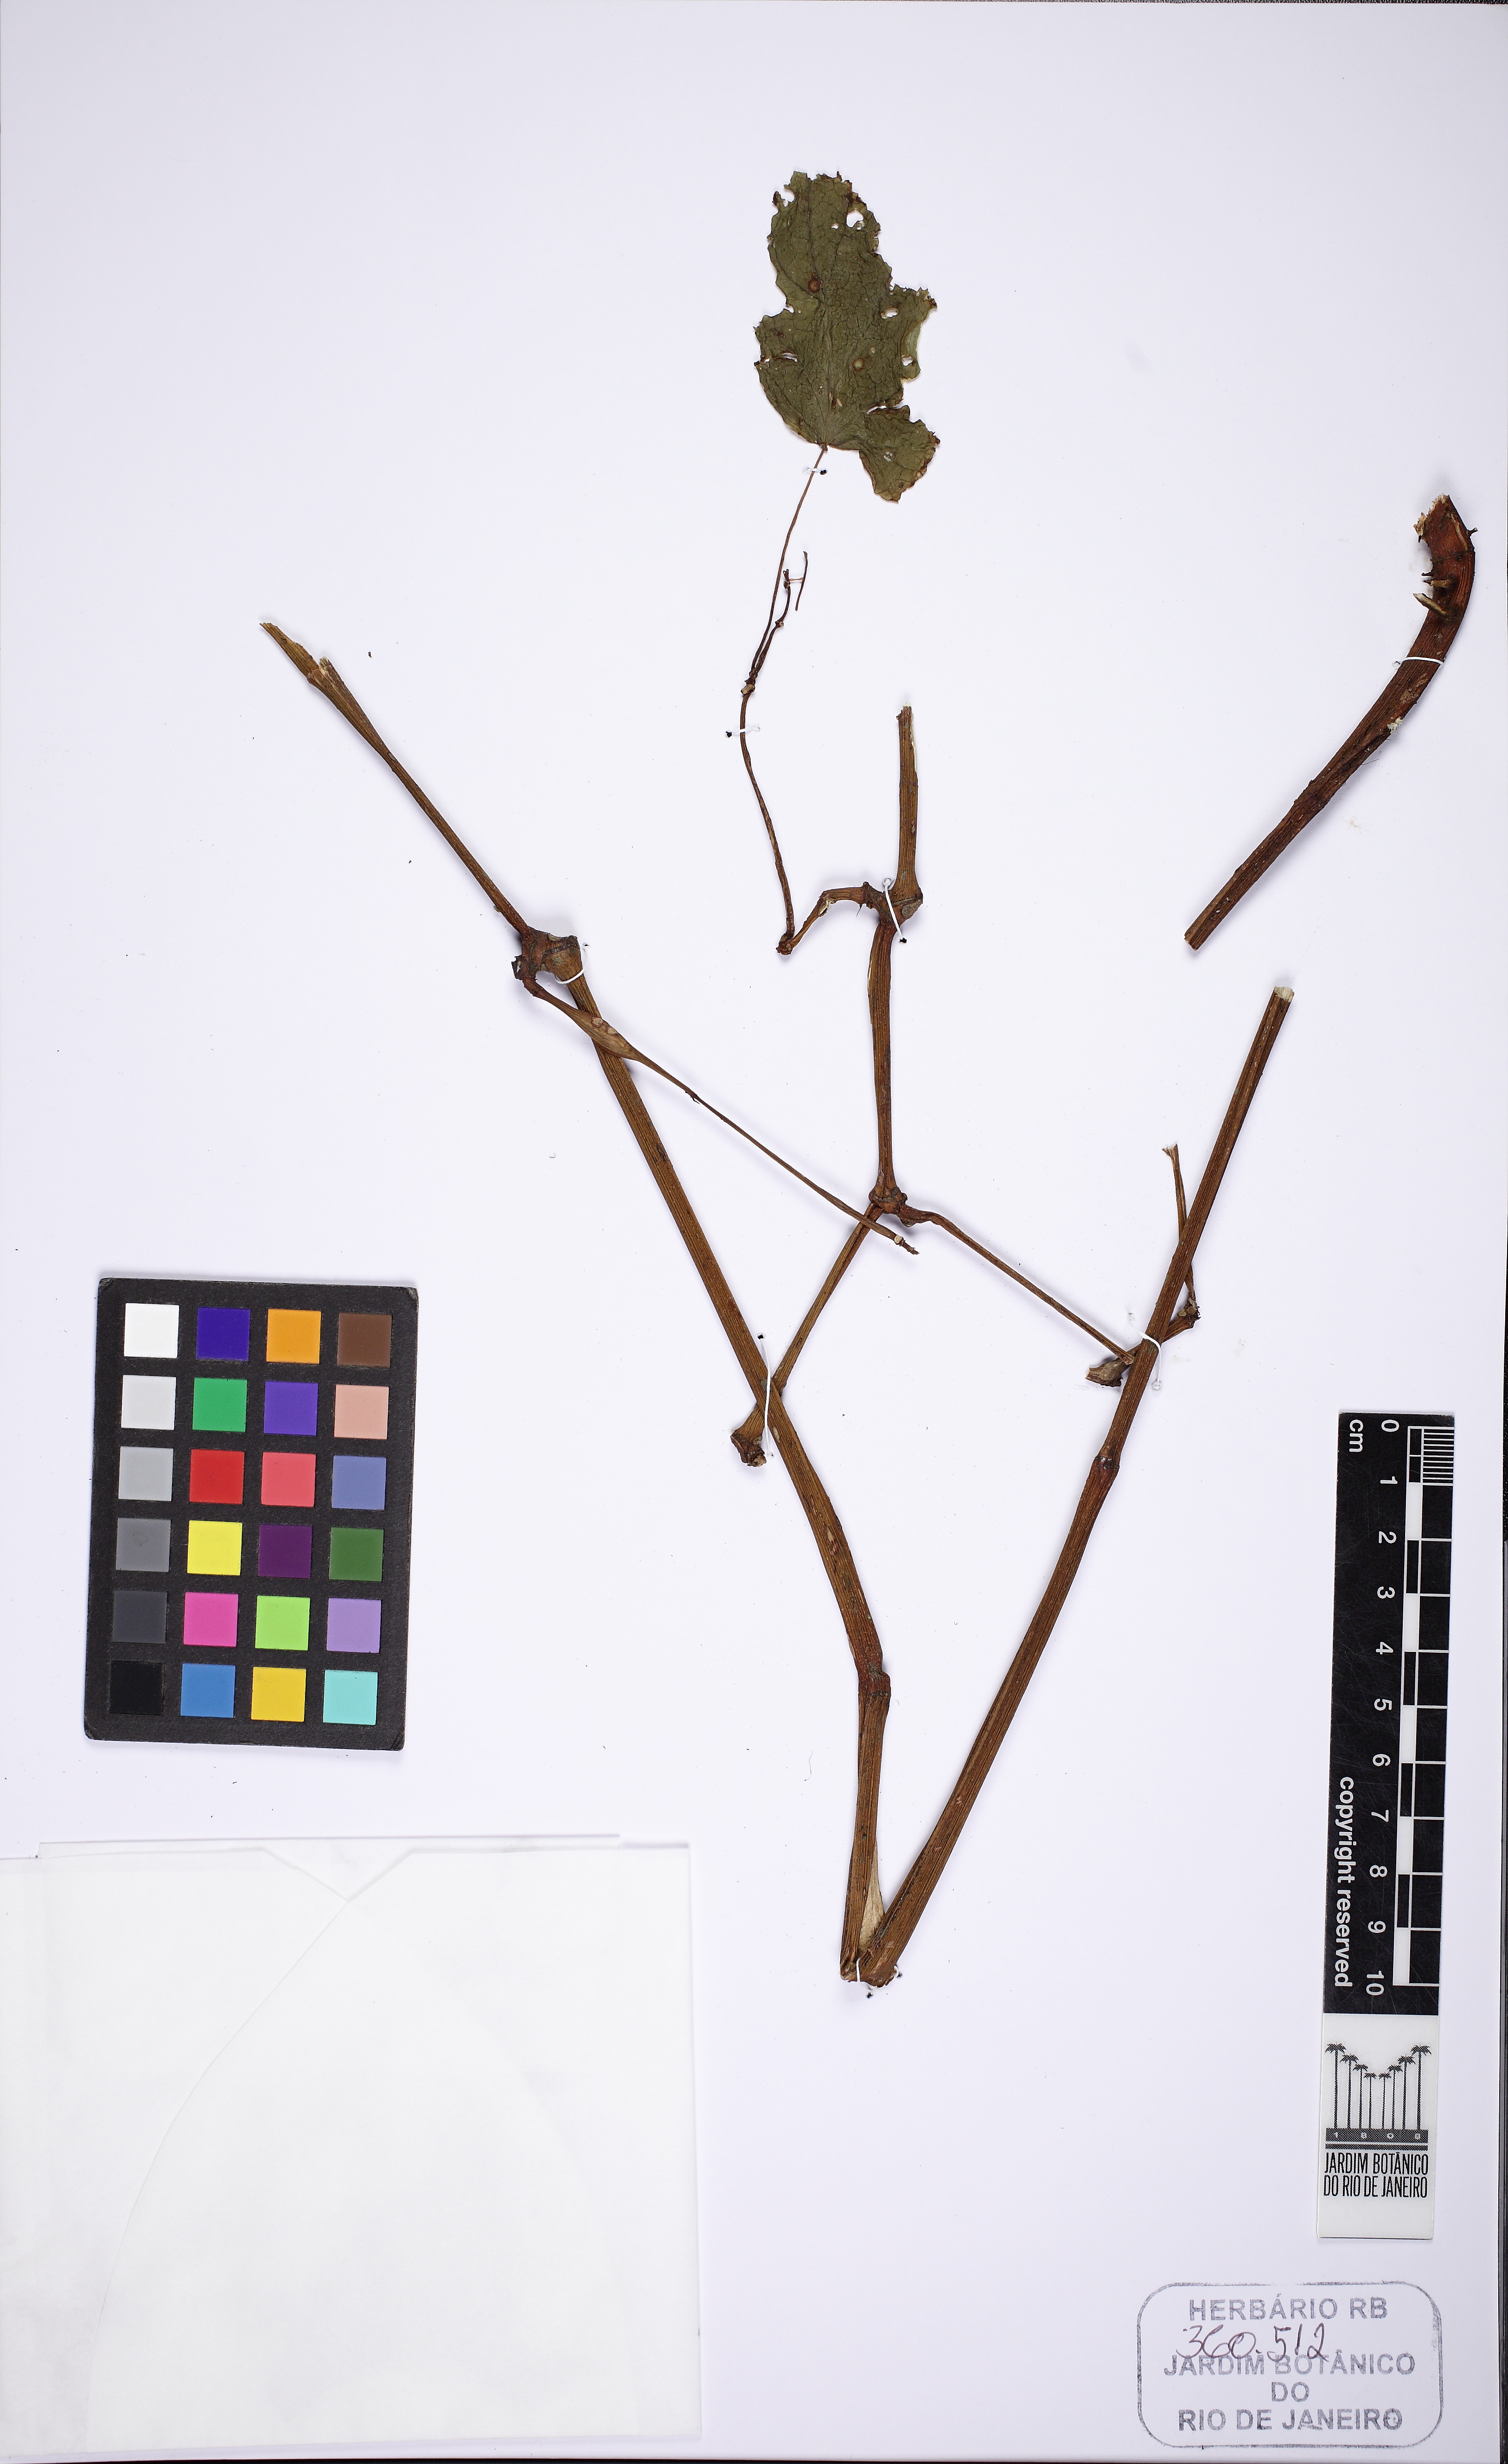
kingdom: Plantae
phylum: Tracheophyta
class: Magnoliopsida
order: Cucurbitales
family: Begoniaceae
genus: Begonia
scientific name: Begonia dietrichiana
